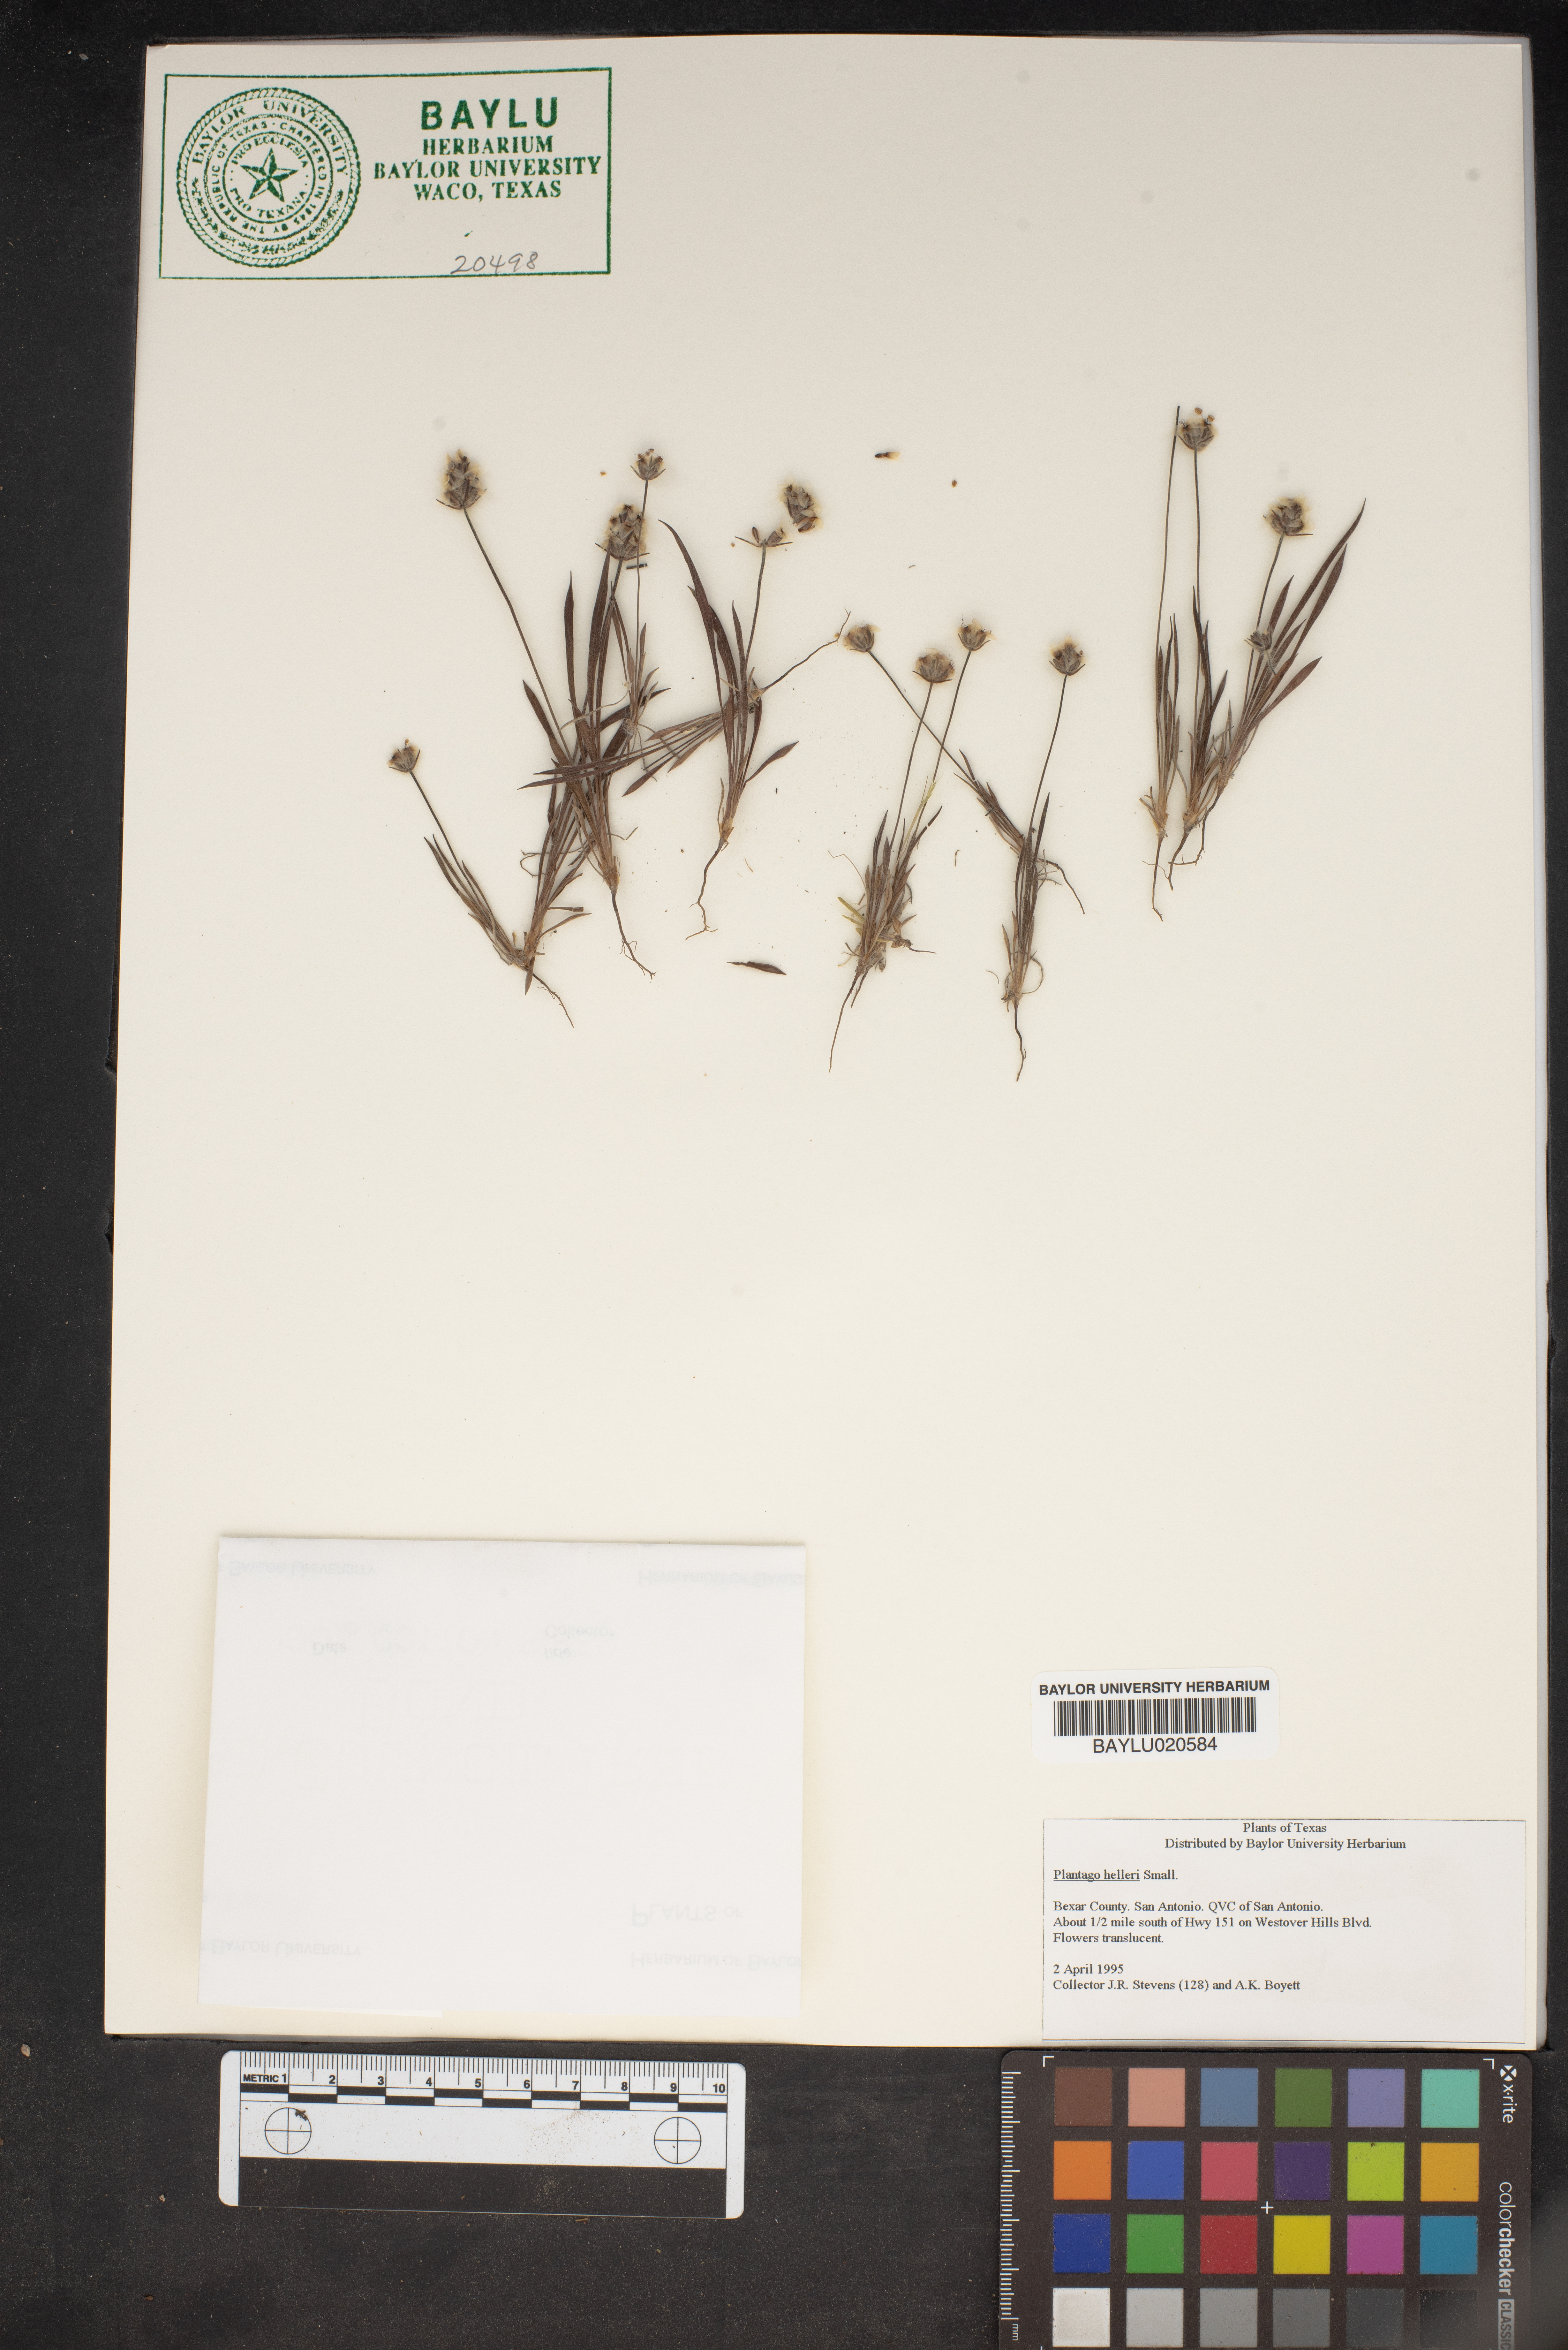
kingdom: Plantae
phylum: Tracheophyta
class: Magnoliopsida
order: Lamiales
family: Plantaginaceae
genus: Plantago
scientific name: Plantago helleri
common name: Heller's plantain
